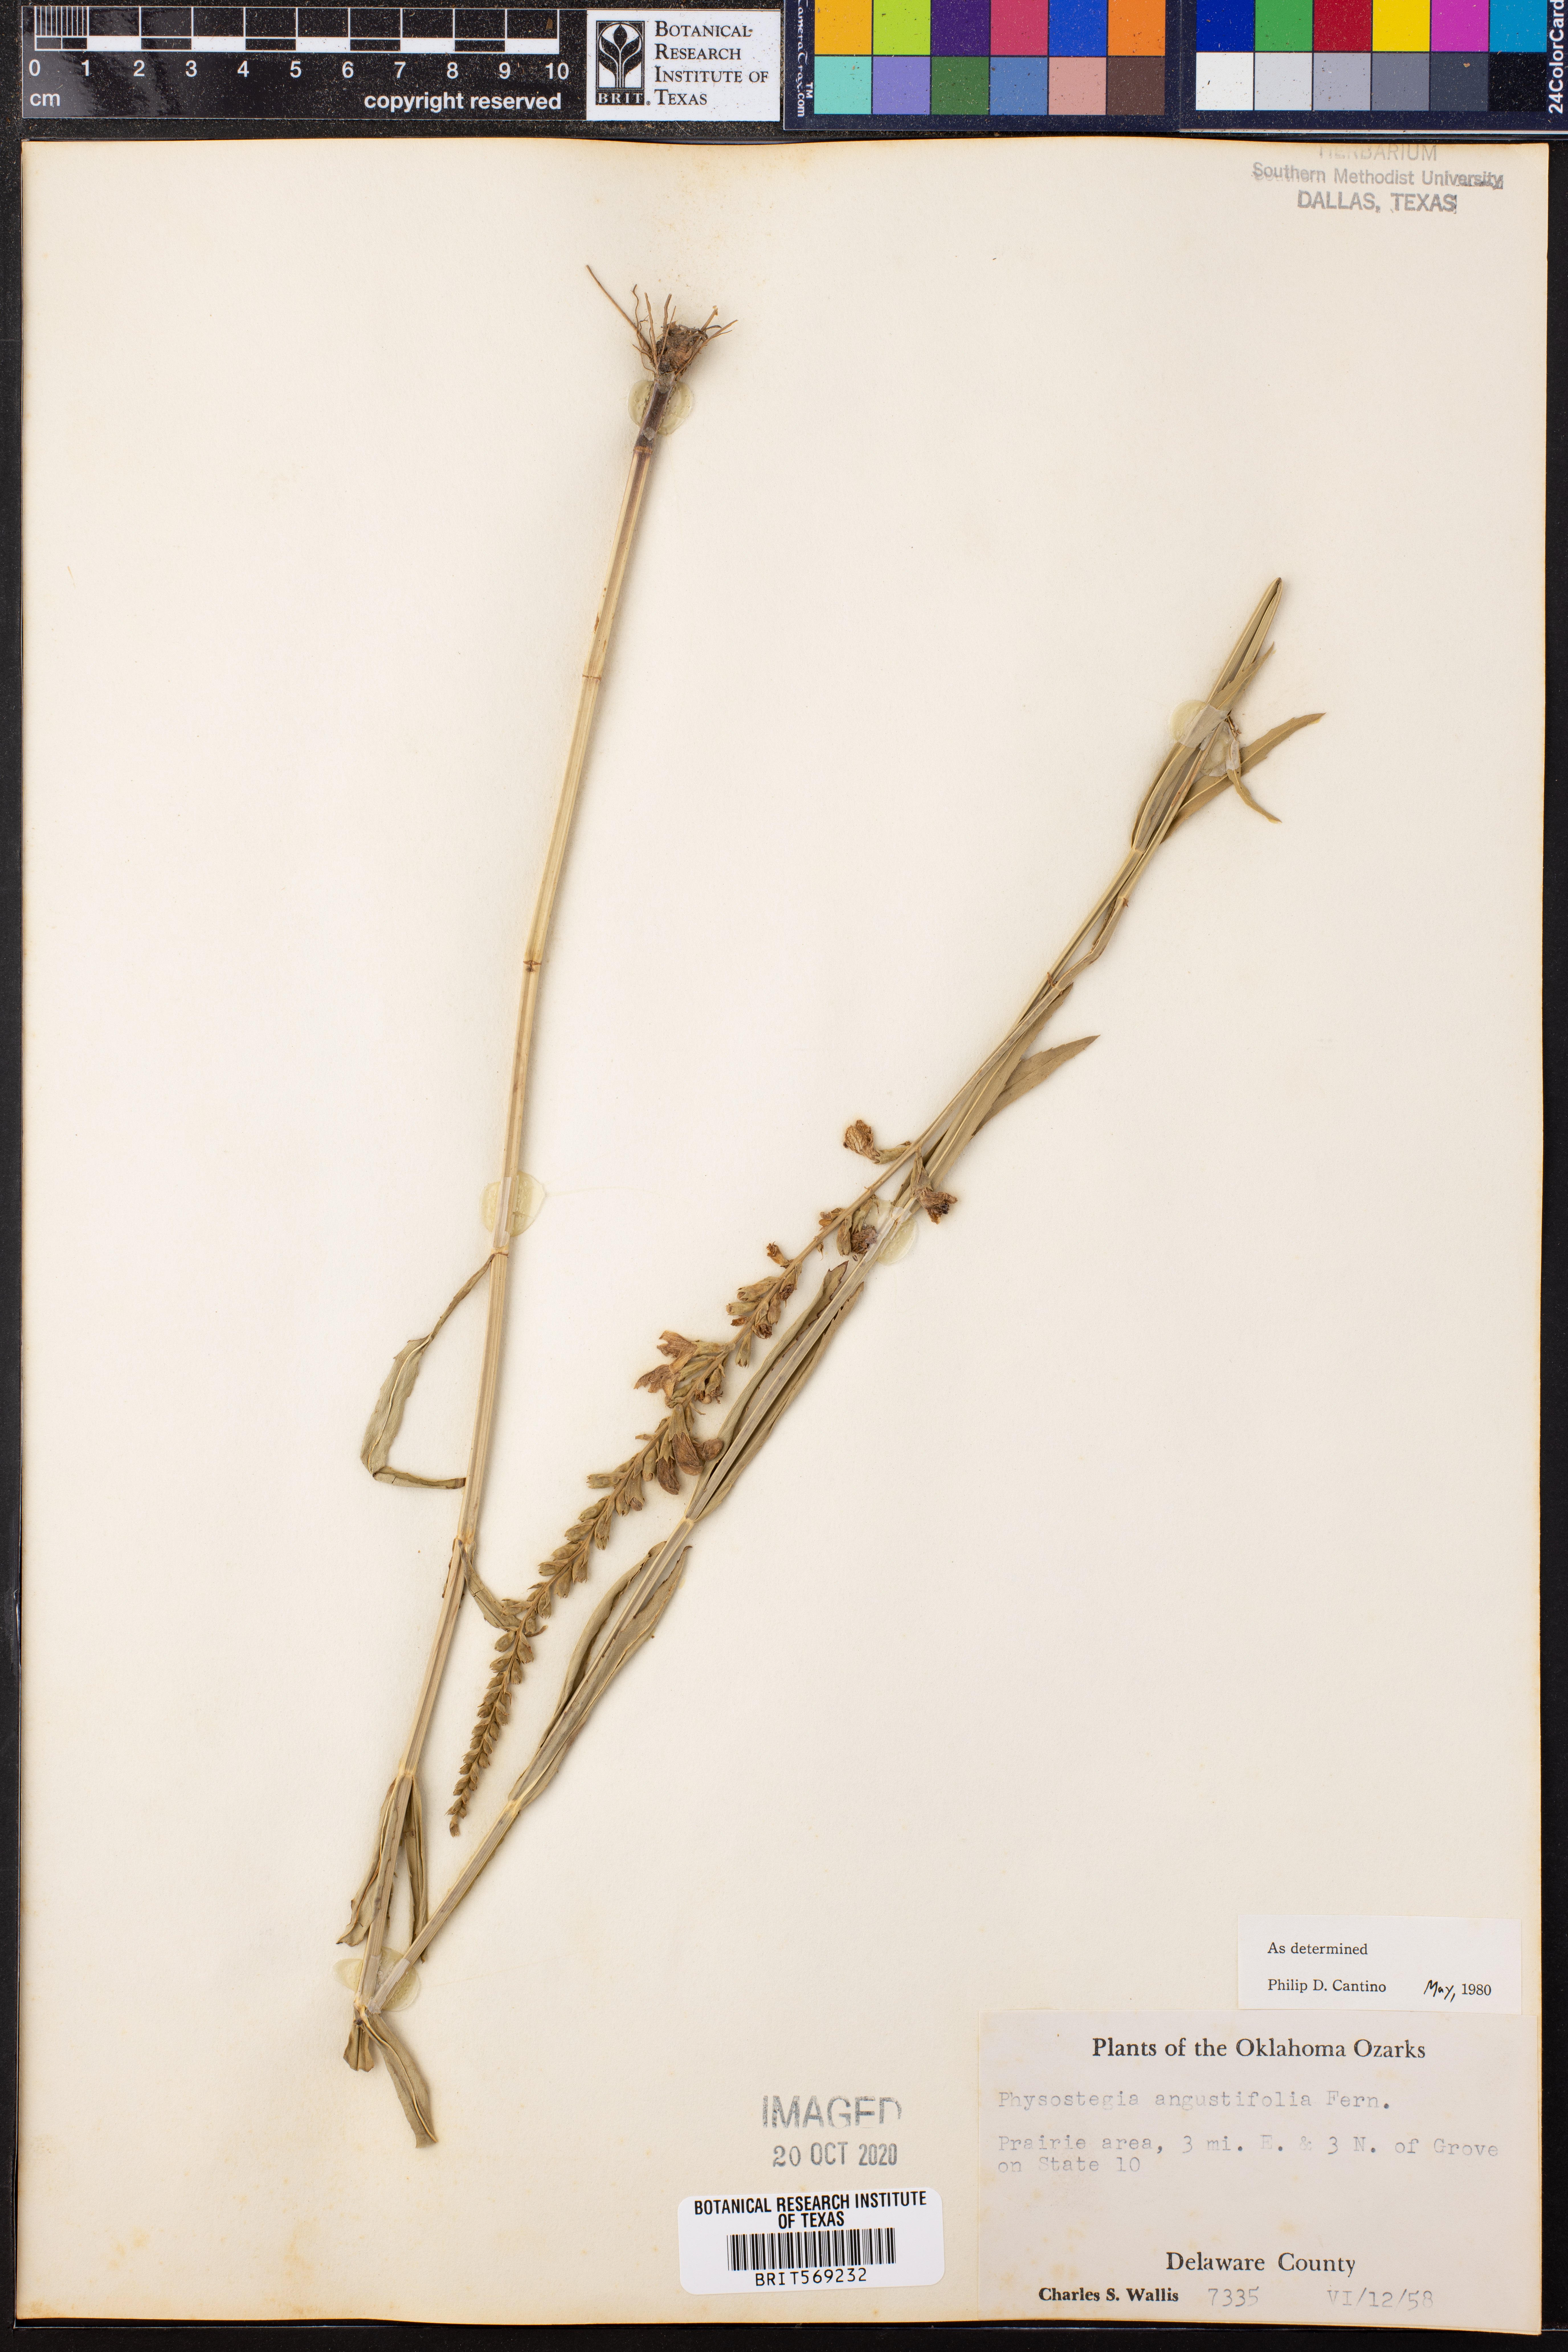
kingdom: Plantae
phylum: Tracheophyta
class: Magnoliopsida
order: Lamiales
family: Lamiaceae
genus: Physostegia
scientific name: Physostegia angustifolia
